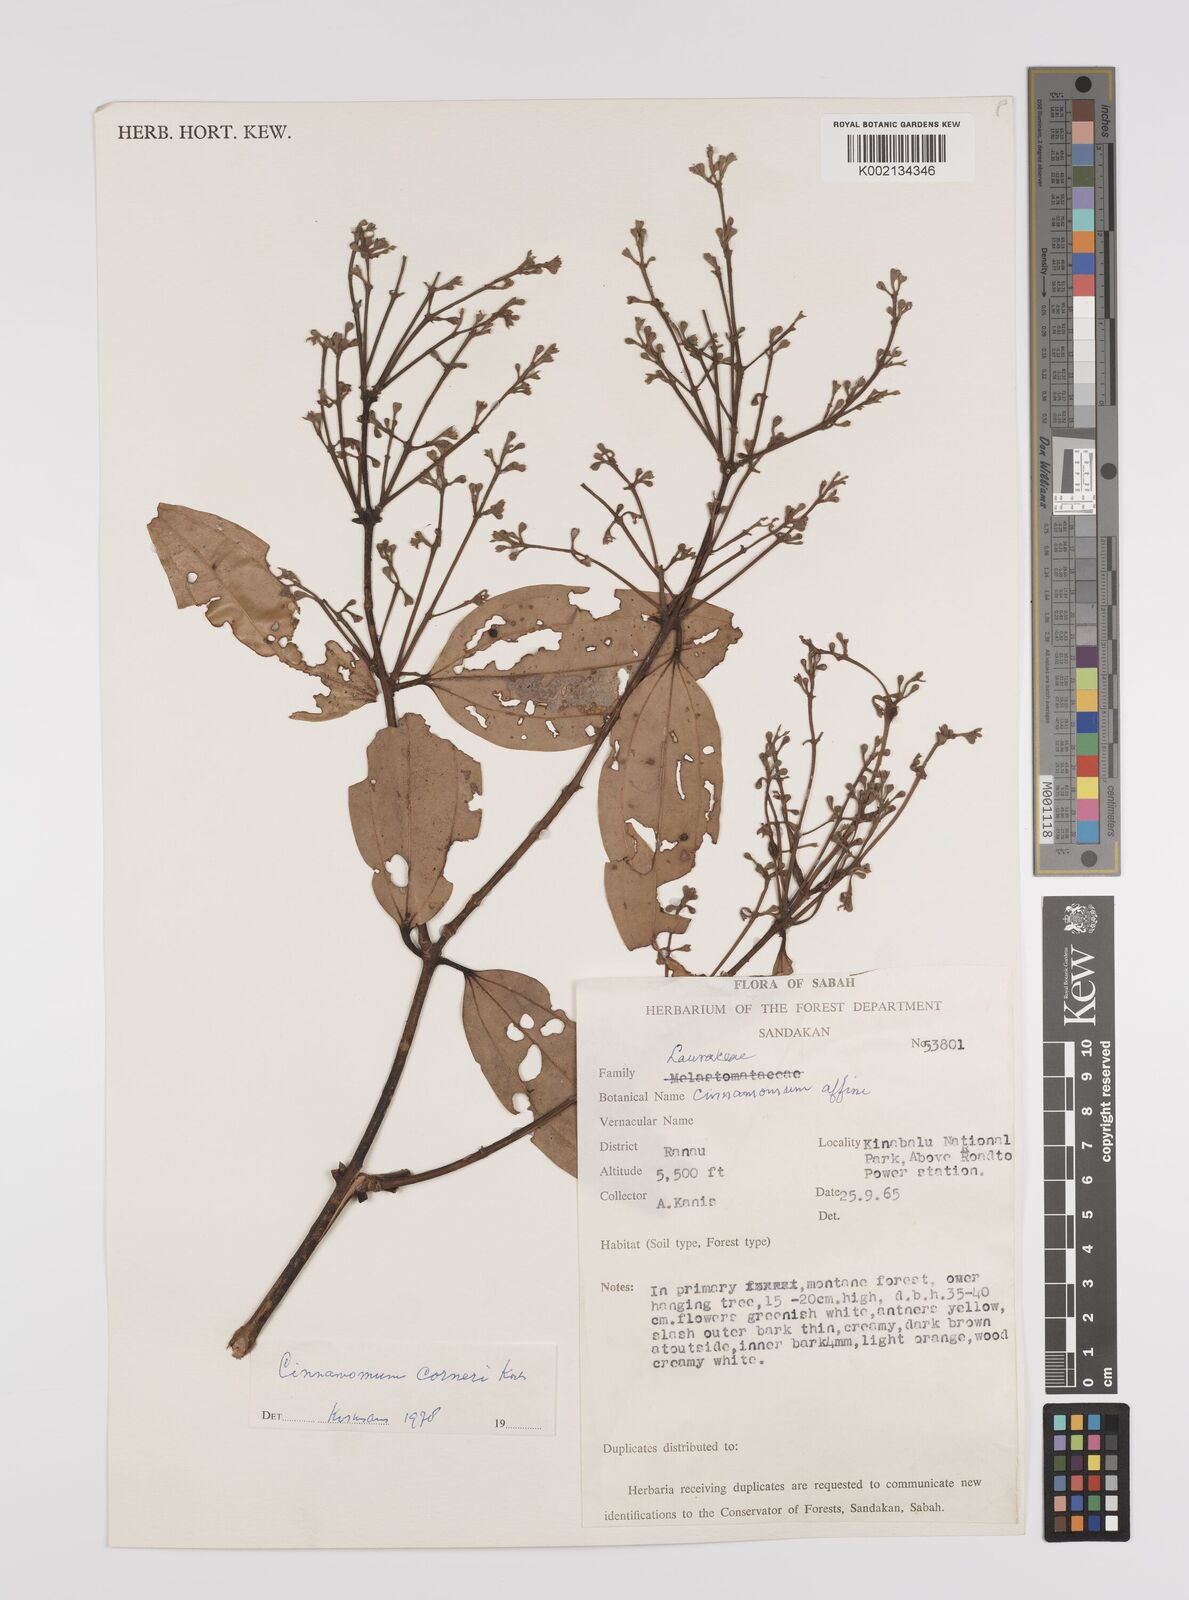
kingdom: Plantae
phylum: Tracheophyta
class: Magnoliopsida
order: Laurales
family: Lauraceae
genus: Cinnamomum
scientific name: Cinnamomum corneri
